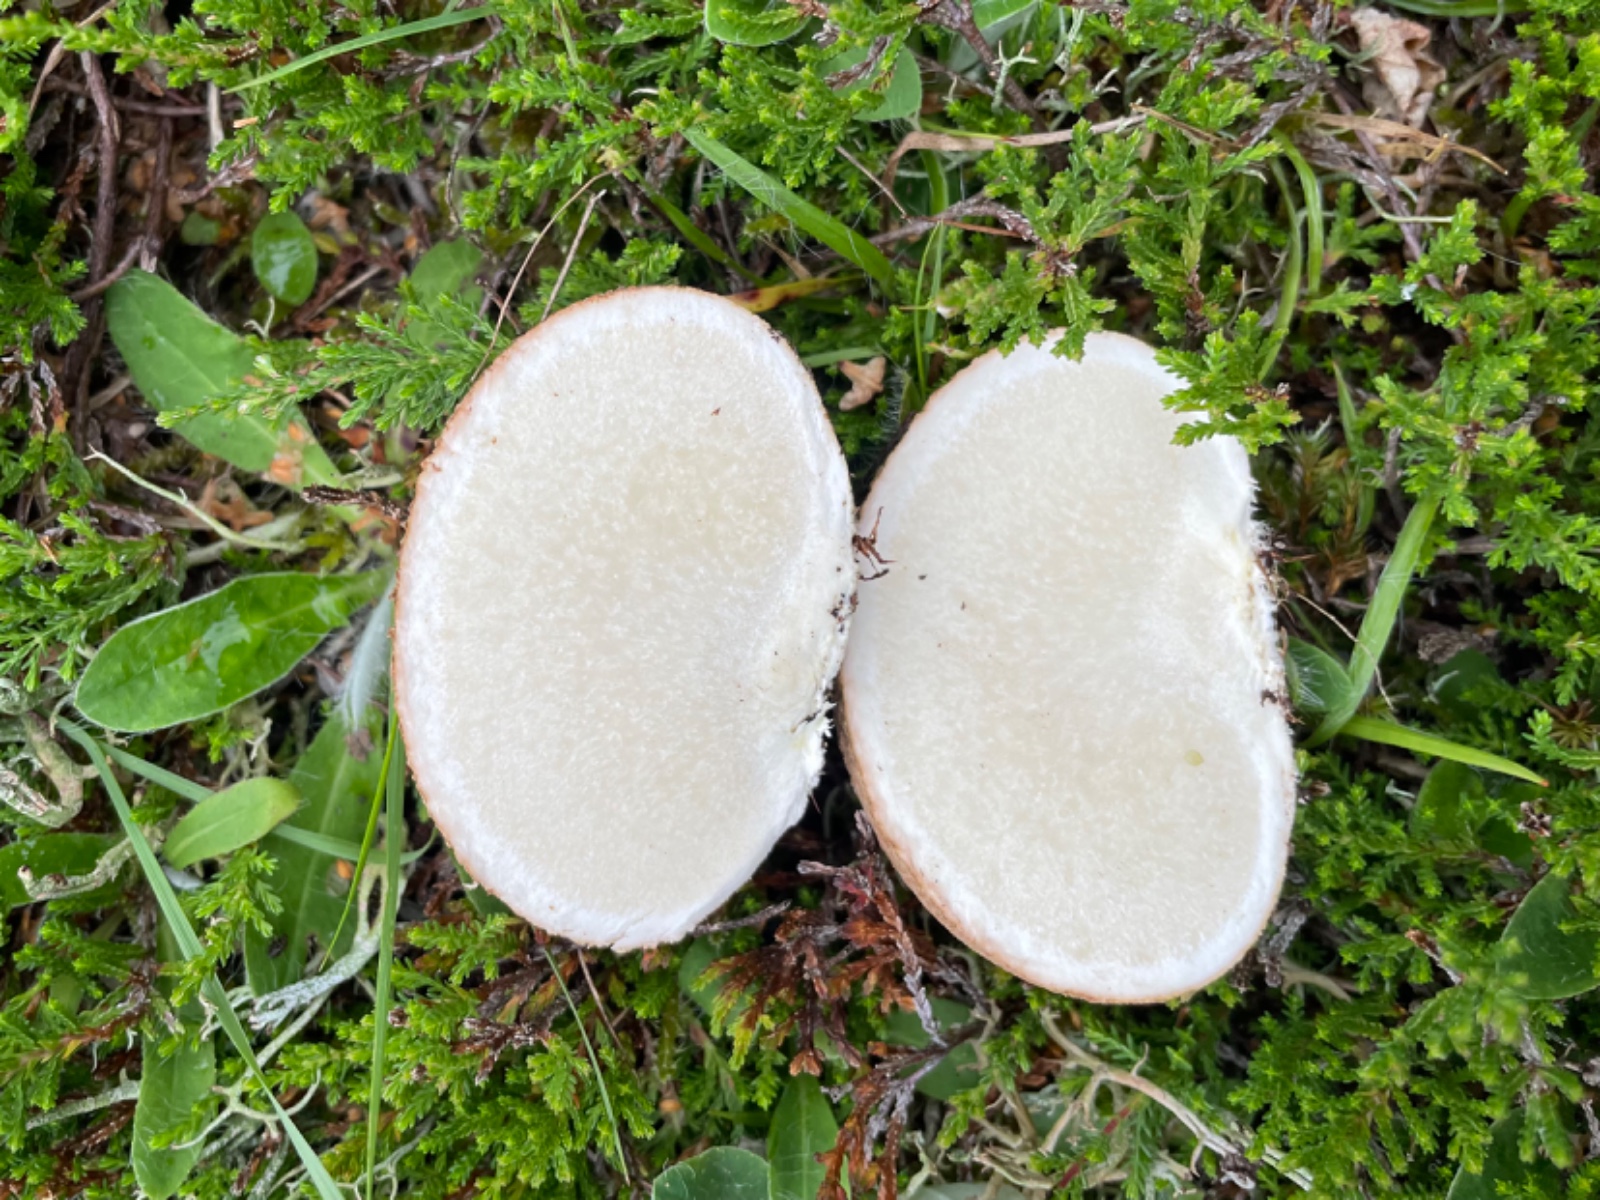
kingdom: Fungi
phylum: Basidiomycota
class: Agaricomycetes
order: Boletales
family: Sclerodermataceae
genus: Scleroderma
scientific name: Scleroderma citrinum
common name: almindelig bruskbold
